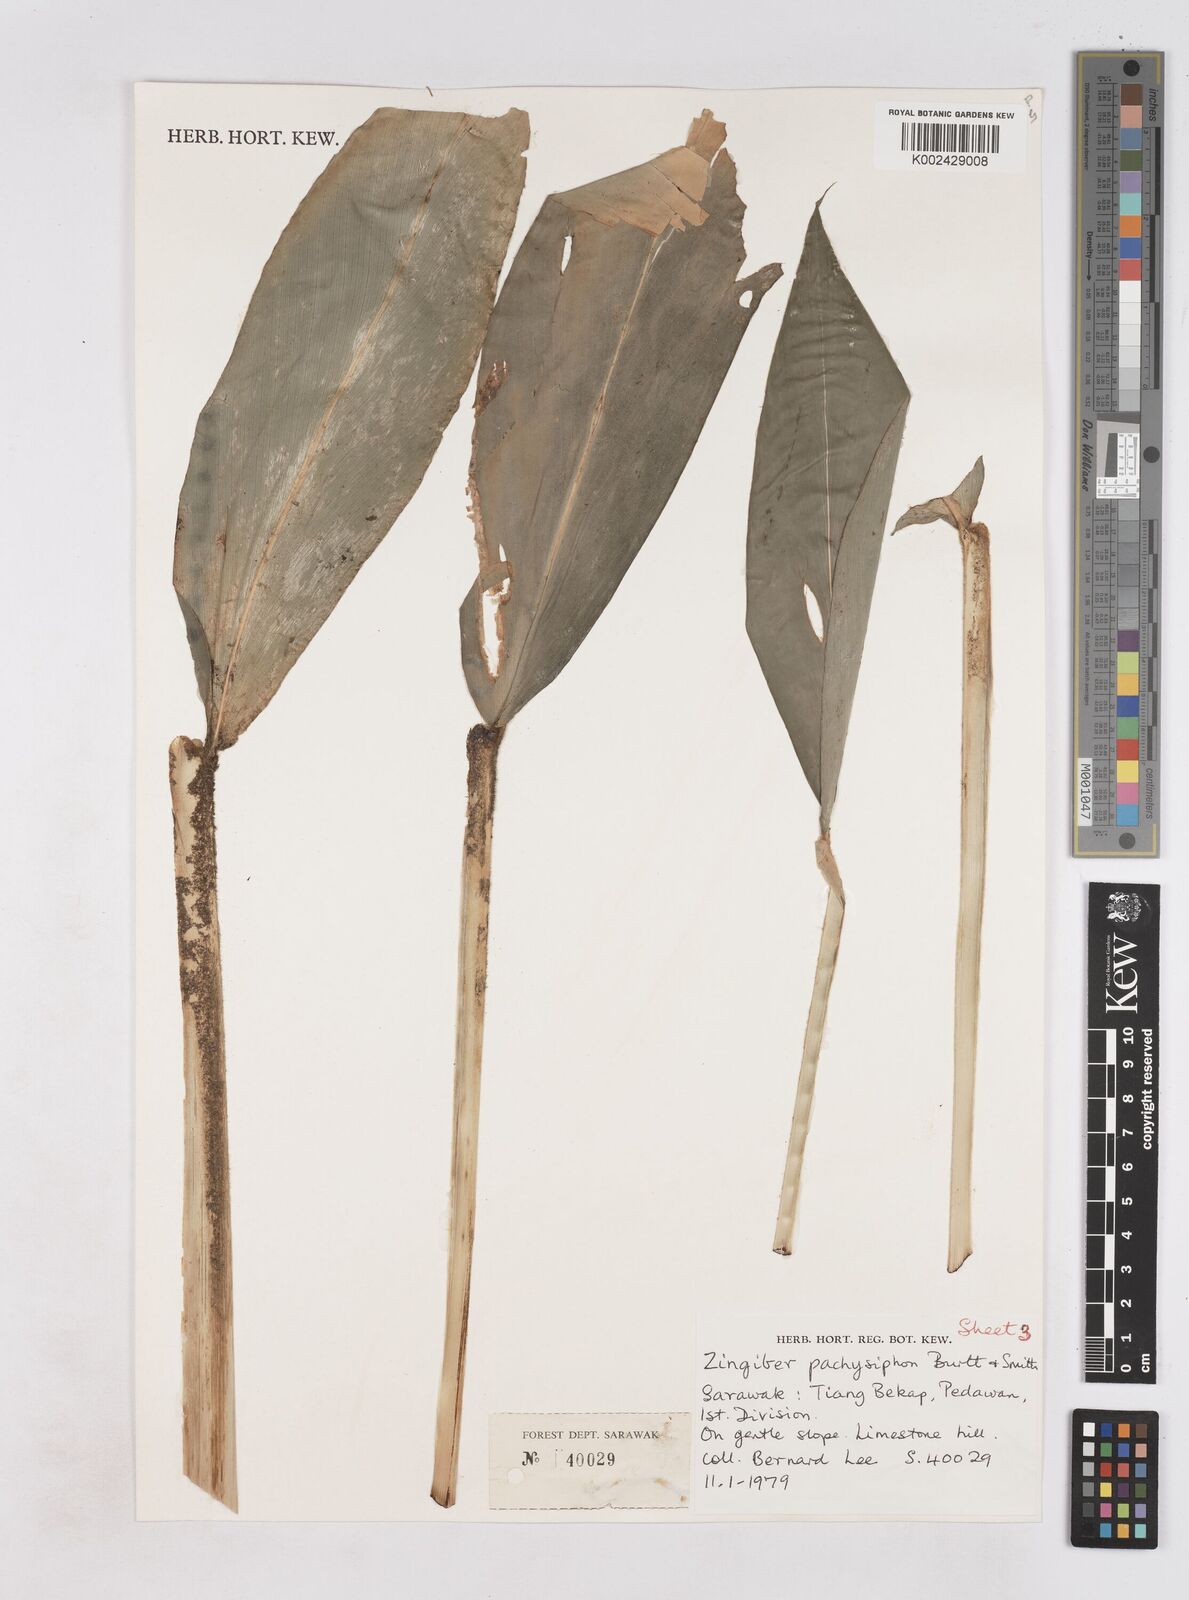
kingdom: Plantae
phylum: Tracheophyta
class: Liliopsida
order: Zingiberales
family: Zingiberaceae
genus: Zingiber
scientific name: Zingiber pachysiphon
